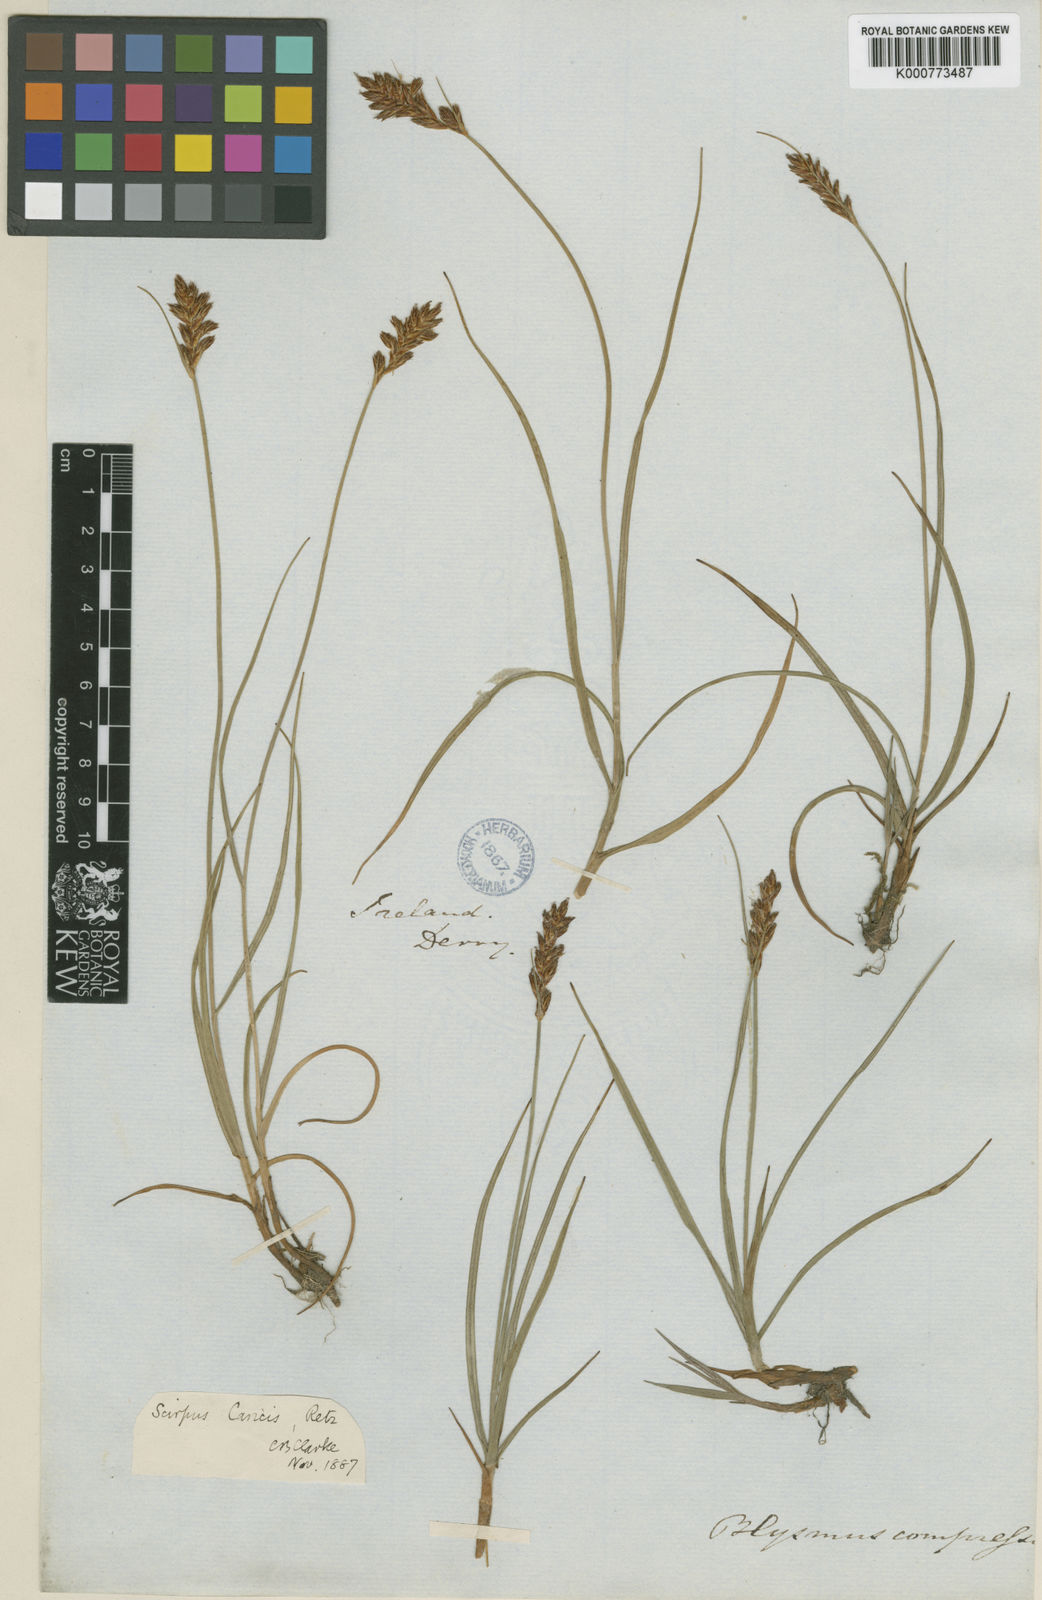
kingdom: Plantae
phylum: Tracheophyta
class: Liliopsida
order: Poales
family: Cyperaceae
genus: Blysmus
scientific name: Blysmus compressus
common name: Flat-sedge
